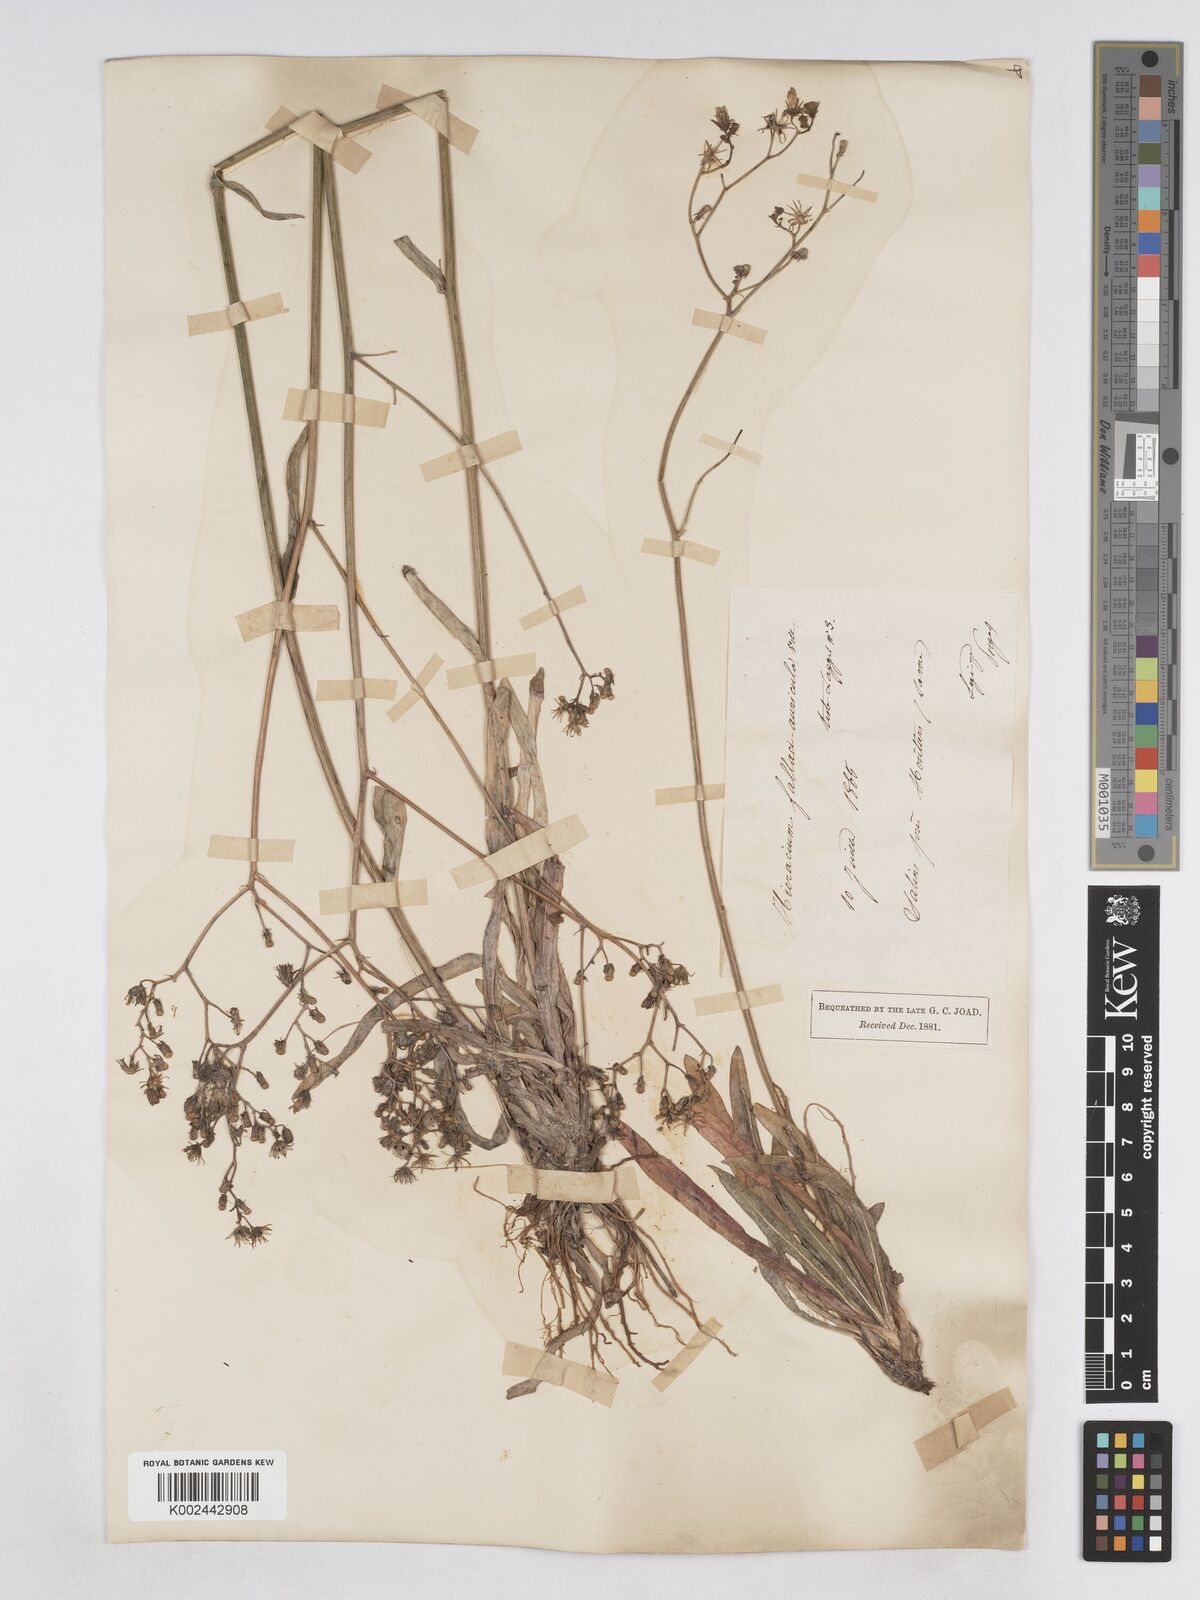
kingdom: Plantae
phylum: Tracheophyta
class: Magnoliopsida
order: Asterales
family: Asteraceae
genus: Pilosella
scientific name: Pilosella pavichii
